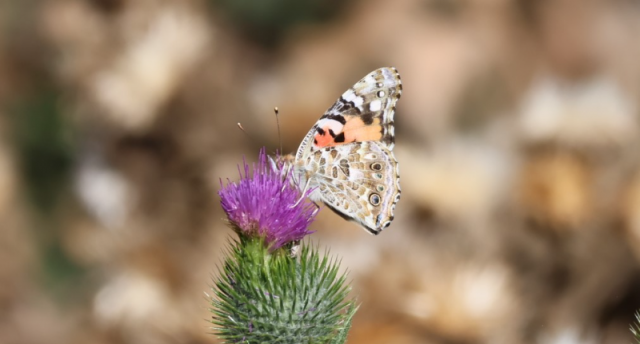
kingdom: Animalia
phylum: Arthropoda
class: Insecta
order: Lepidoptera
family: Nymphalidae
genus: Vanessa
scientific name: Vanessa cardui
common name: Painted Lady
